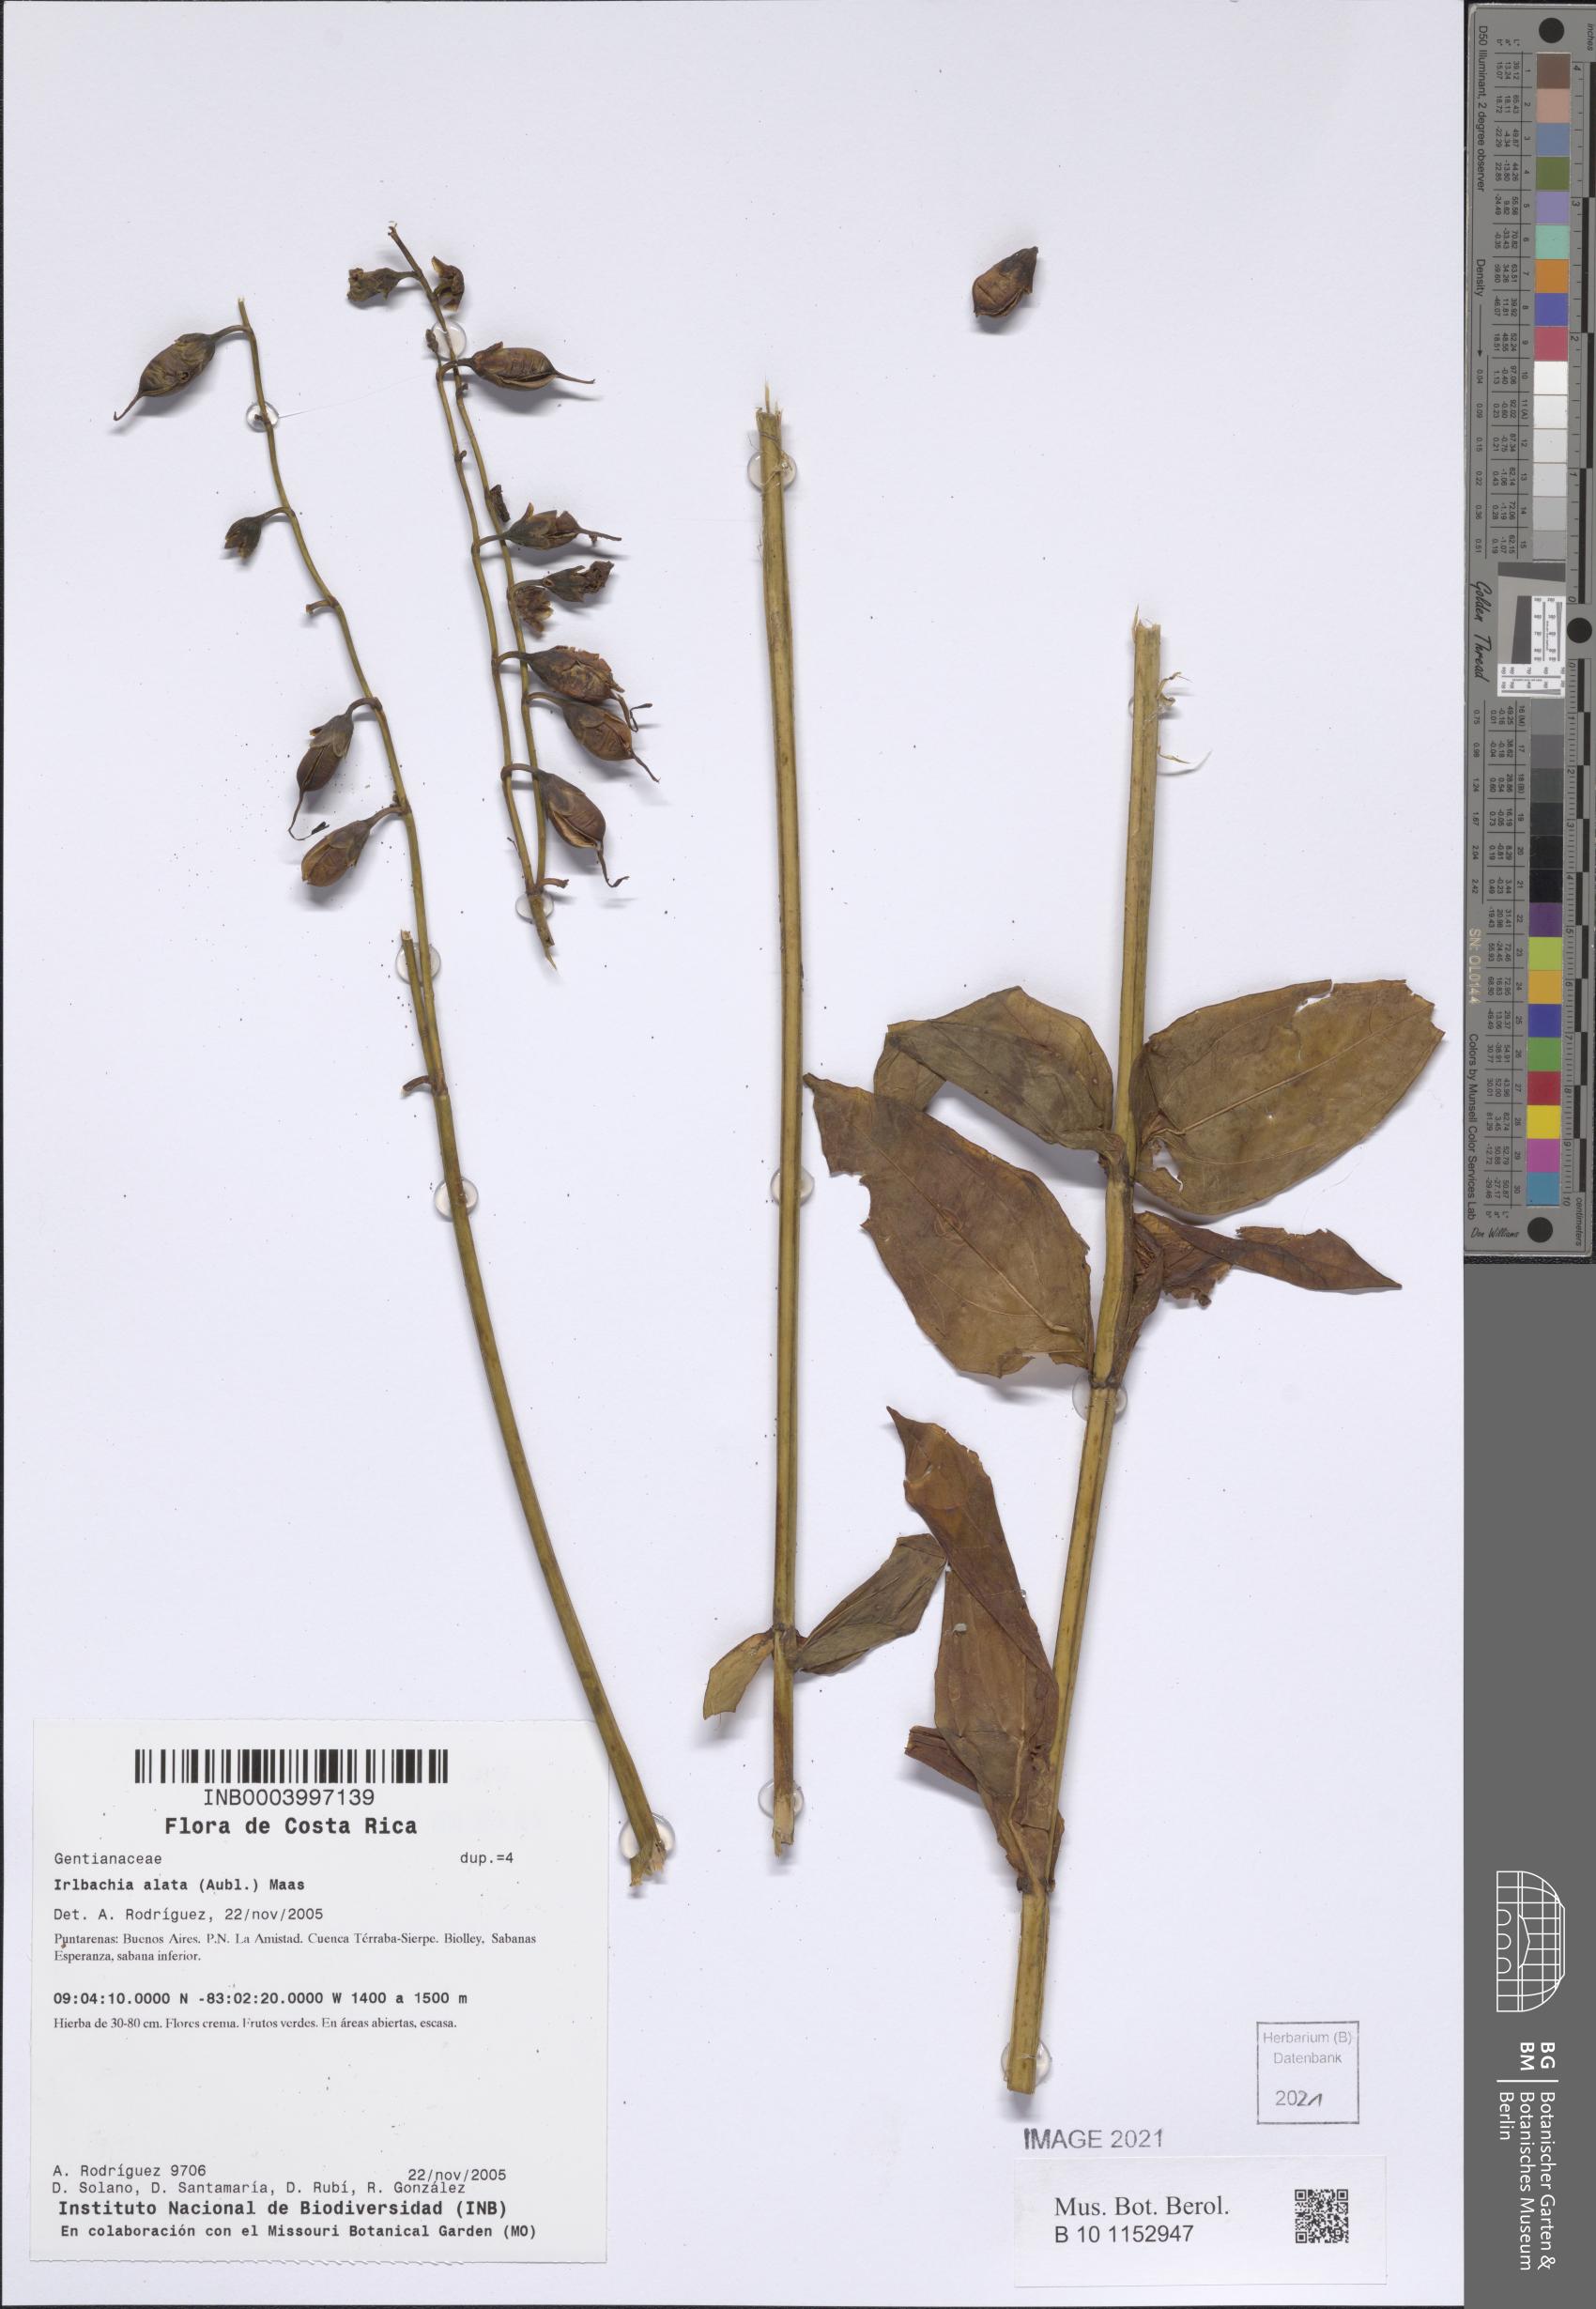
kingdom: Plantae
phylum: Tracheophyta
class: Magnoliopsida
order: Gentianales
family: Gentianaceae
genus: Chelonanthus
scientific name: Chelonanthus alatus
